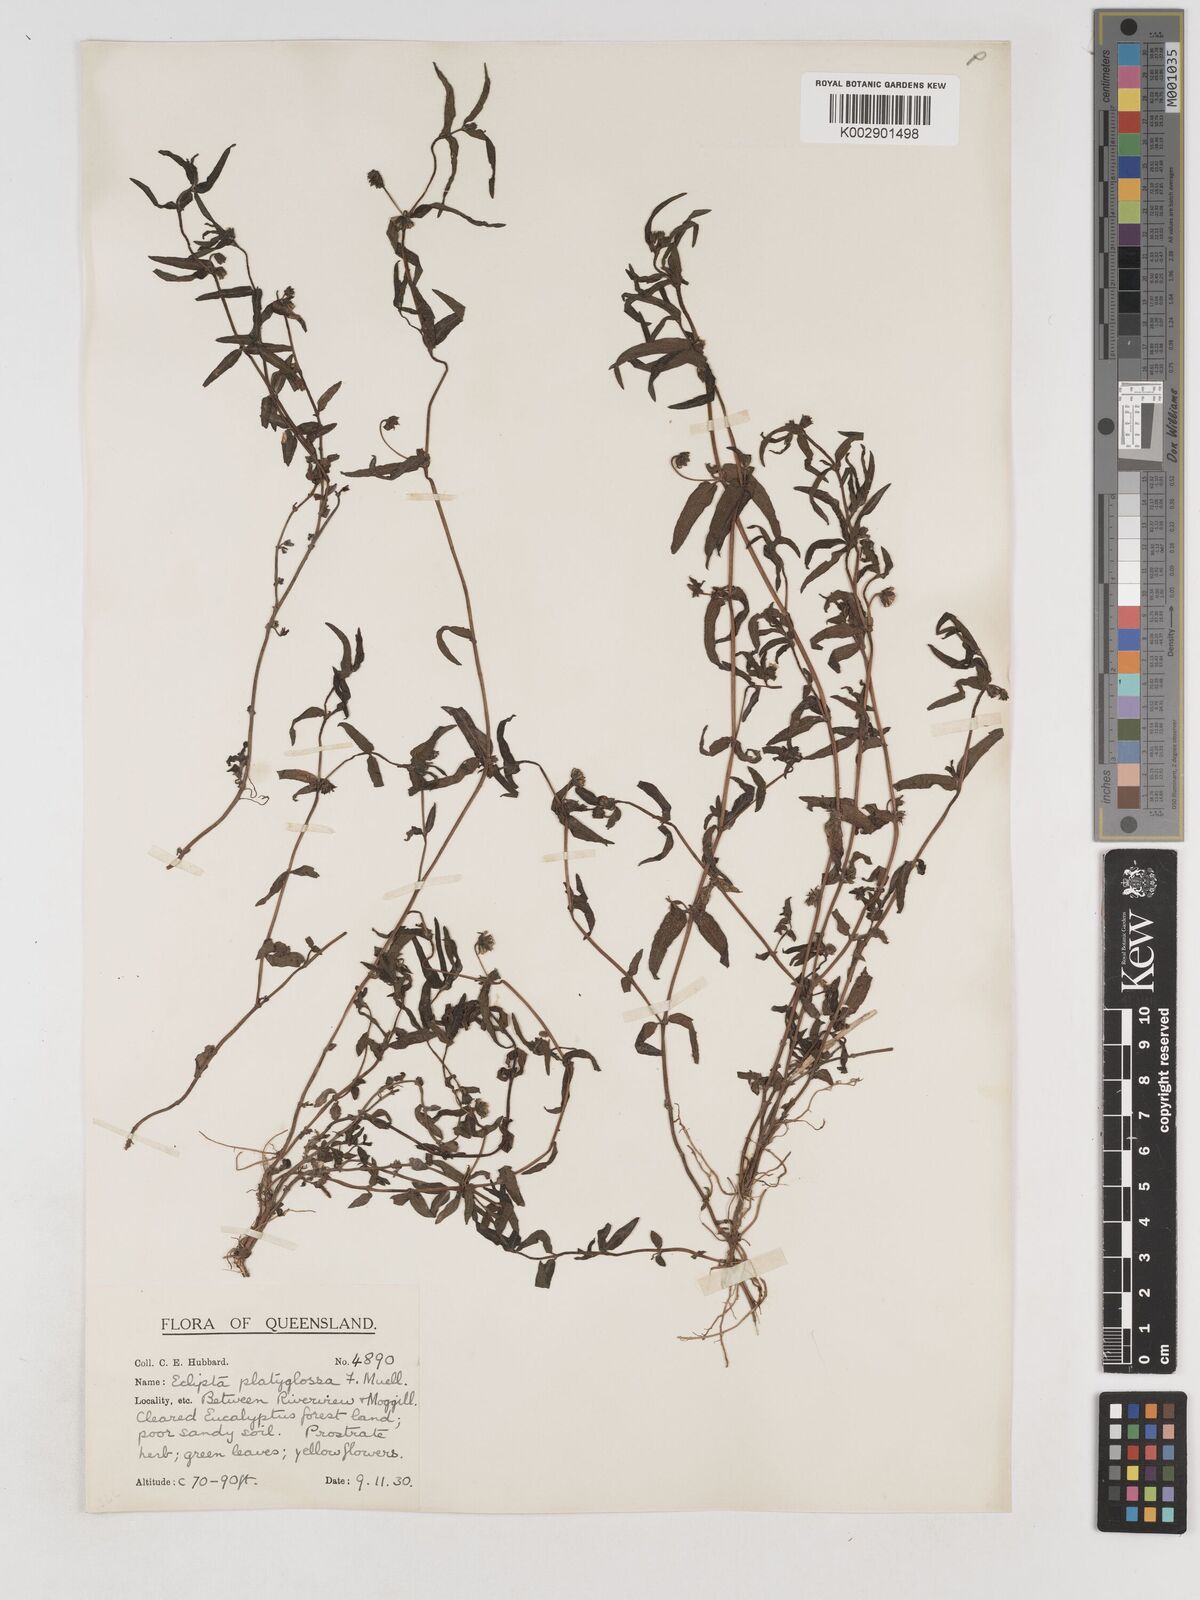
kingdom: Plantae
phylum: Tracheophyta
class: Magnoliopsida
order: Asterales
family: Asteraceae
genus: Eclipta
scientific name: Eclipta platyglossa
